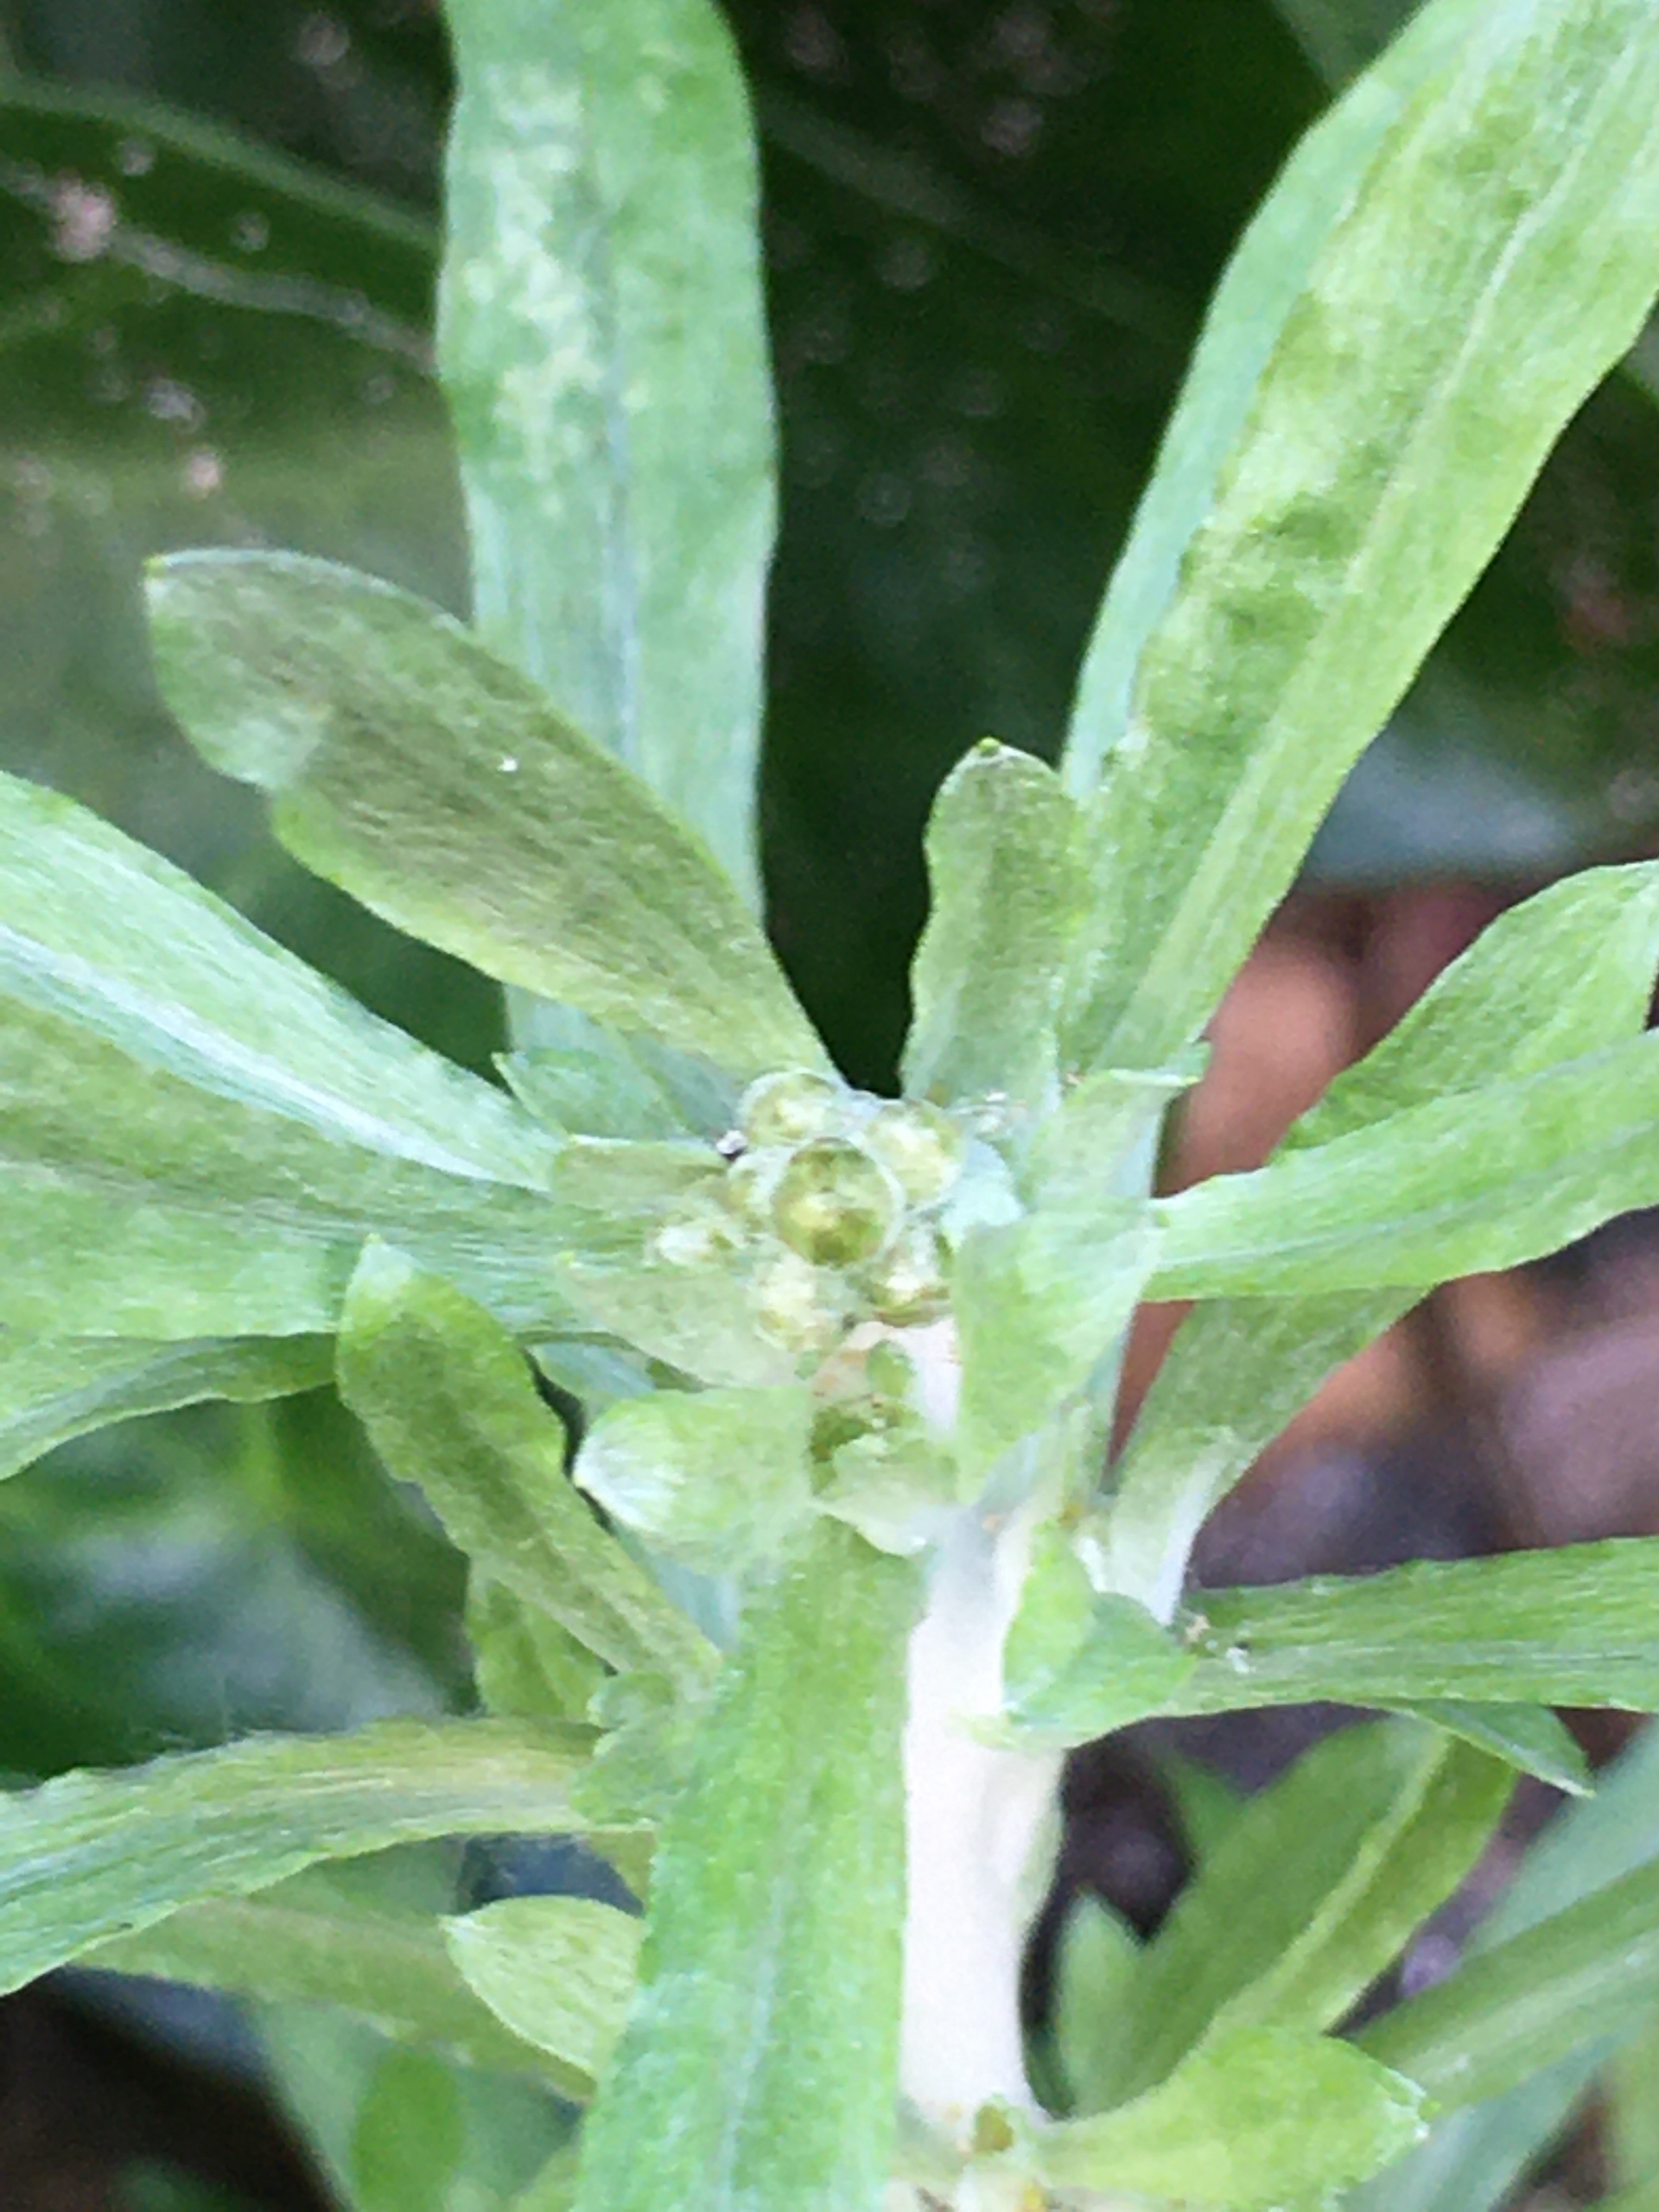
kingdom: Plantae
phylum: Tracheophyta
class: Magnoliopsida
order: Asterales
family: Asteraceae
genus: Gnaphalium
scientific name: Gnaphalium uliginosum
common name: Sump-evighedsblomst
